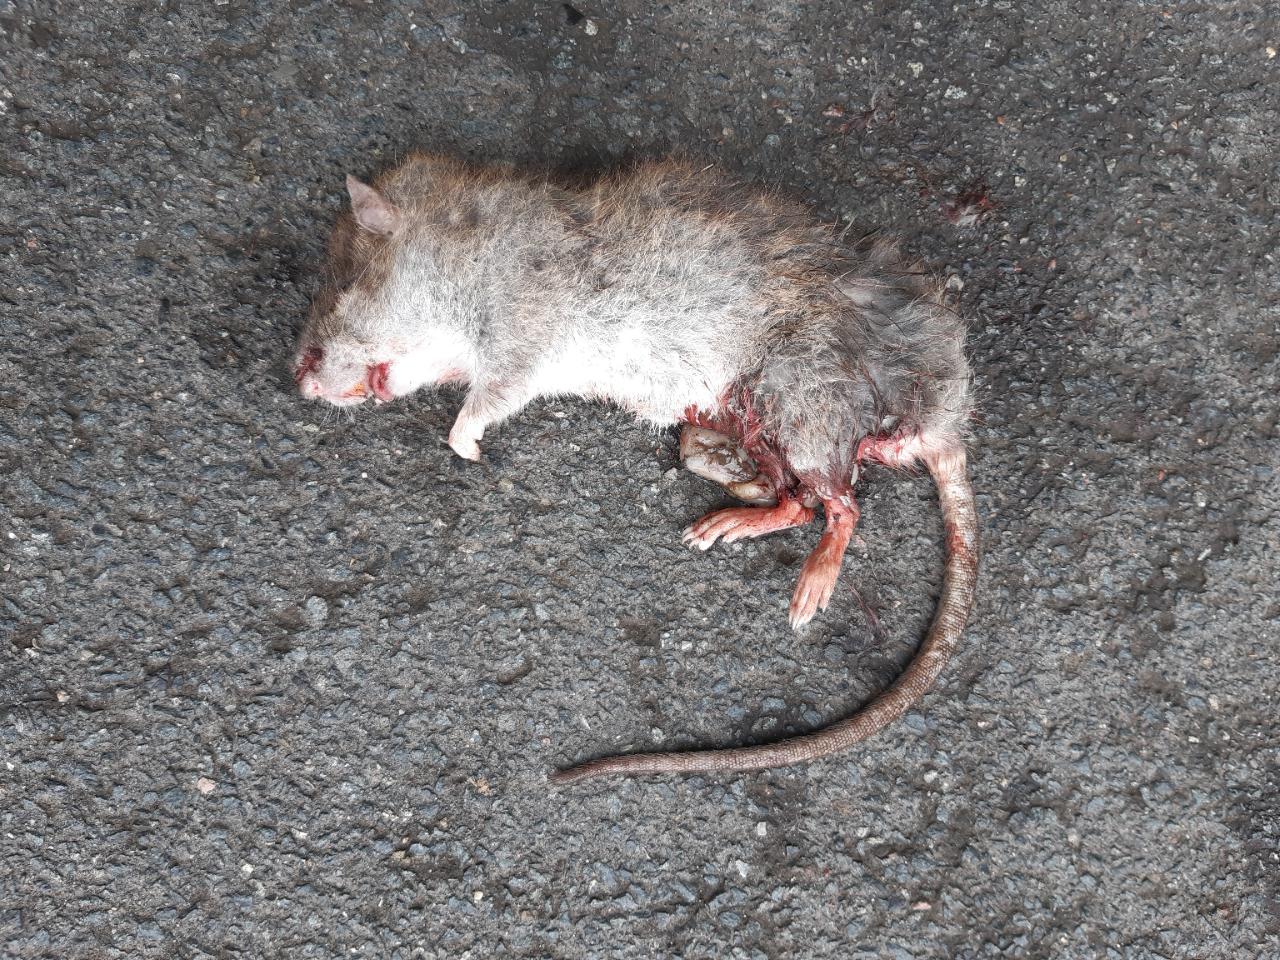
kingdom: Animalia
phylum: Chordata
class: Mammalia
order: Rodentia
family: Muridae
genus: Rattus
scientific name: Rattus norvegicus
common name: Brown rat
